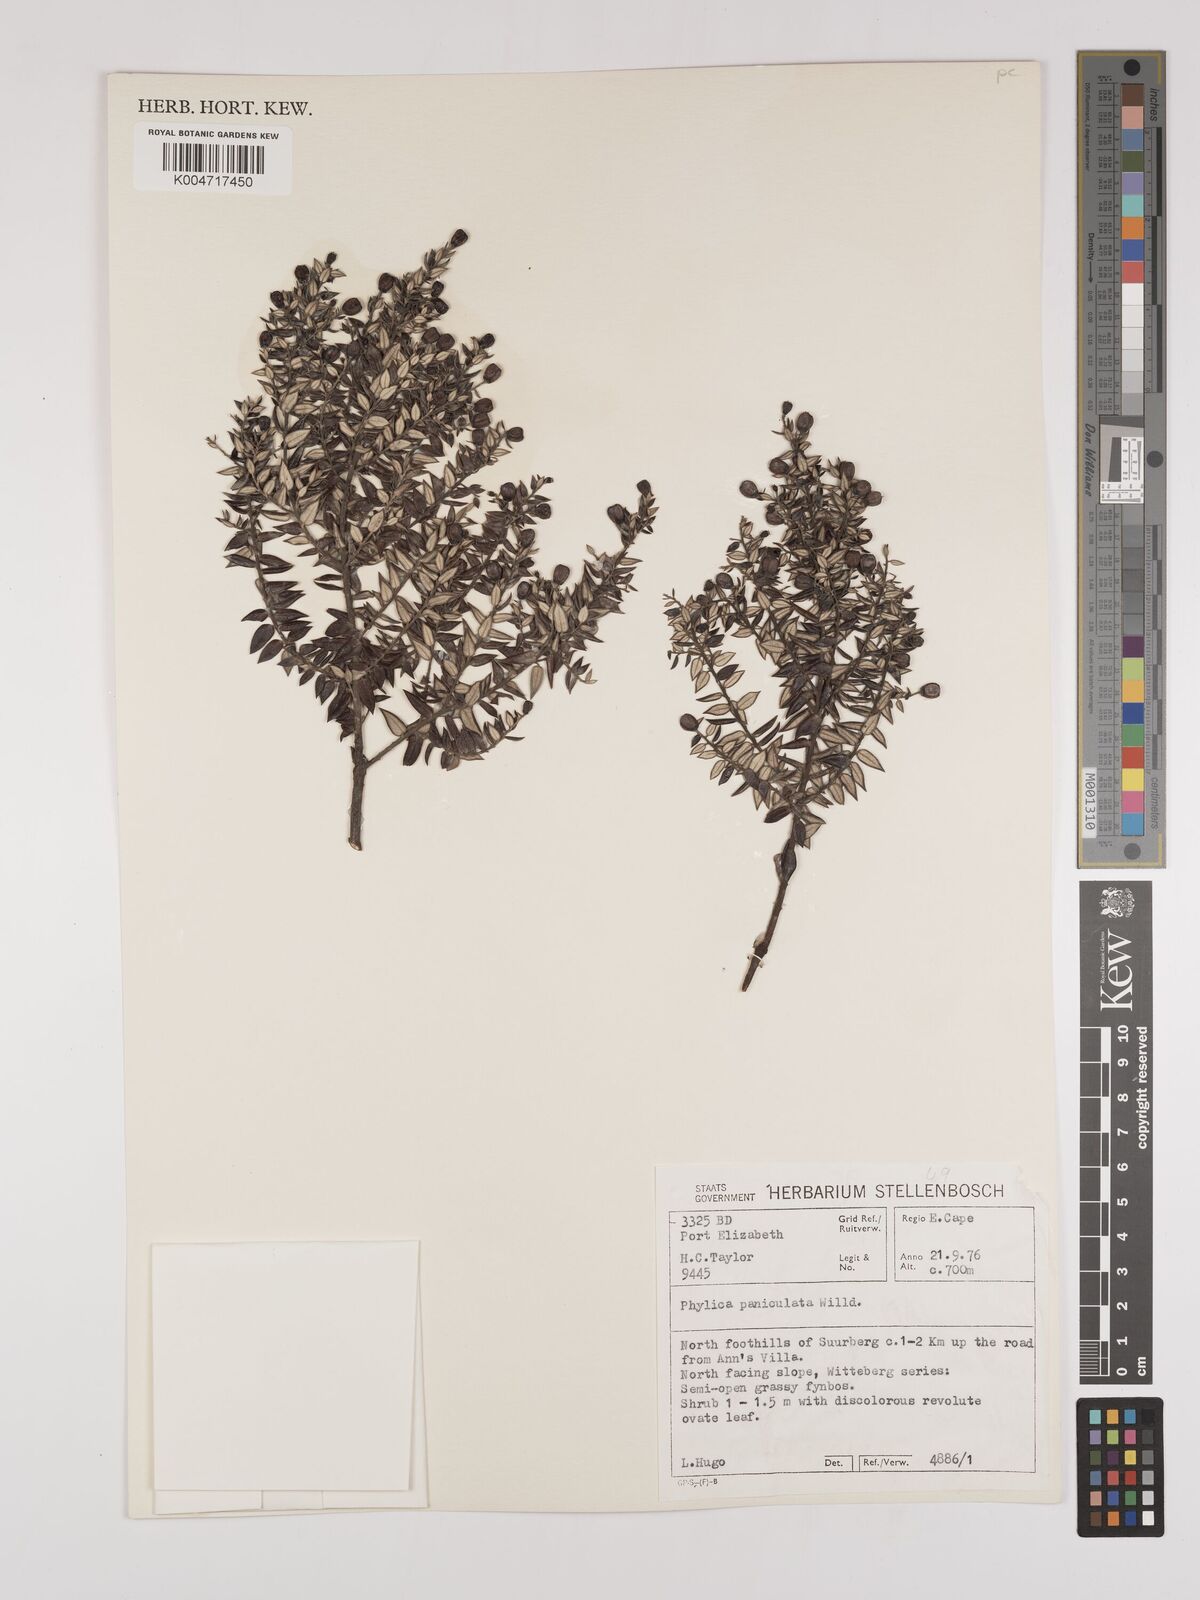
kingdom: Plantae
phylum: Tracheophyta
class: Magnoliopsida
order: Rosales
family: Rhamnaceae
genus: Phylica
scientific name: Phylica paniculata
